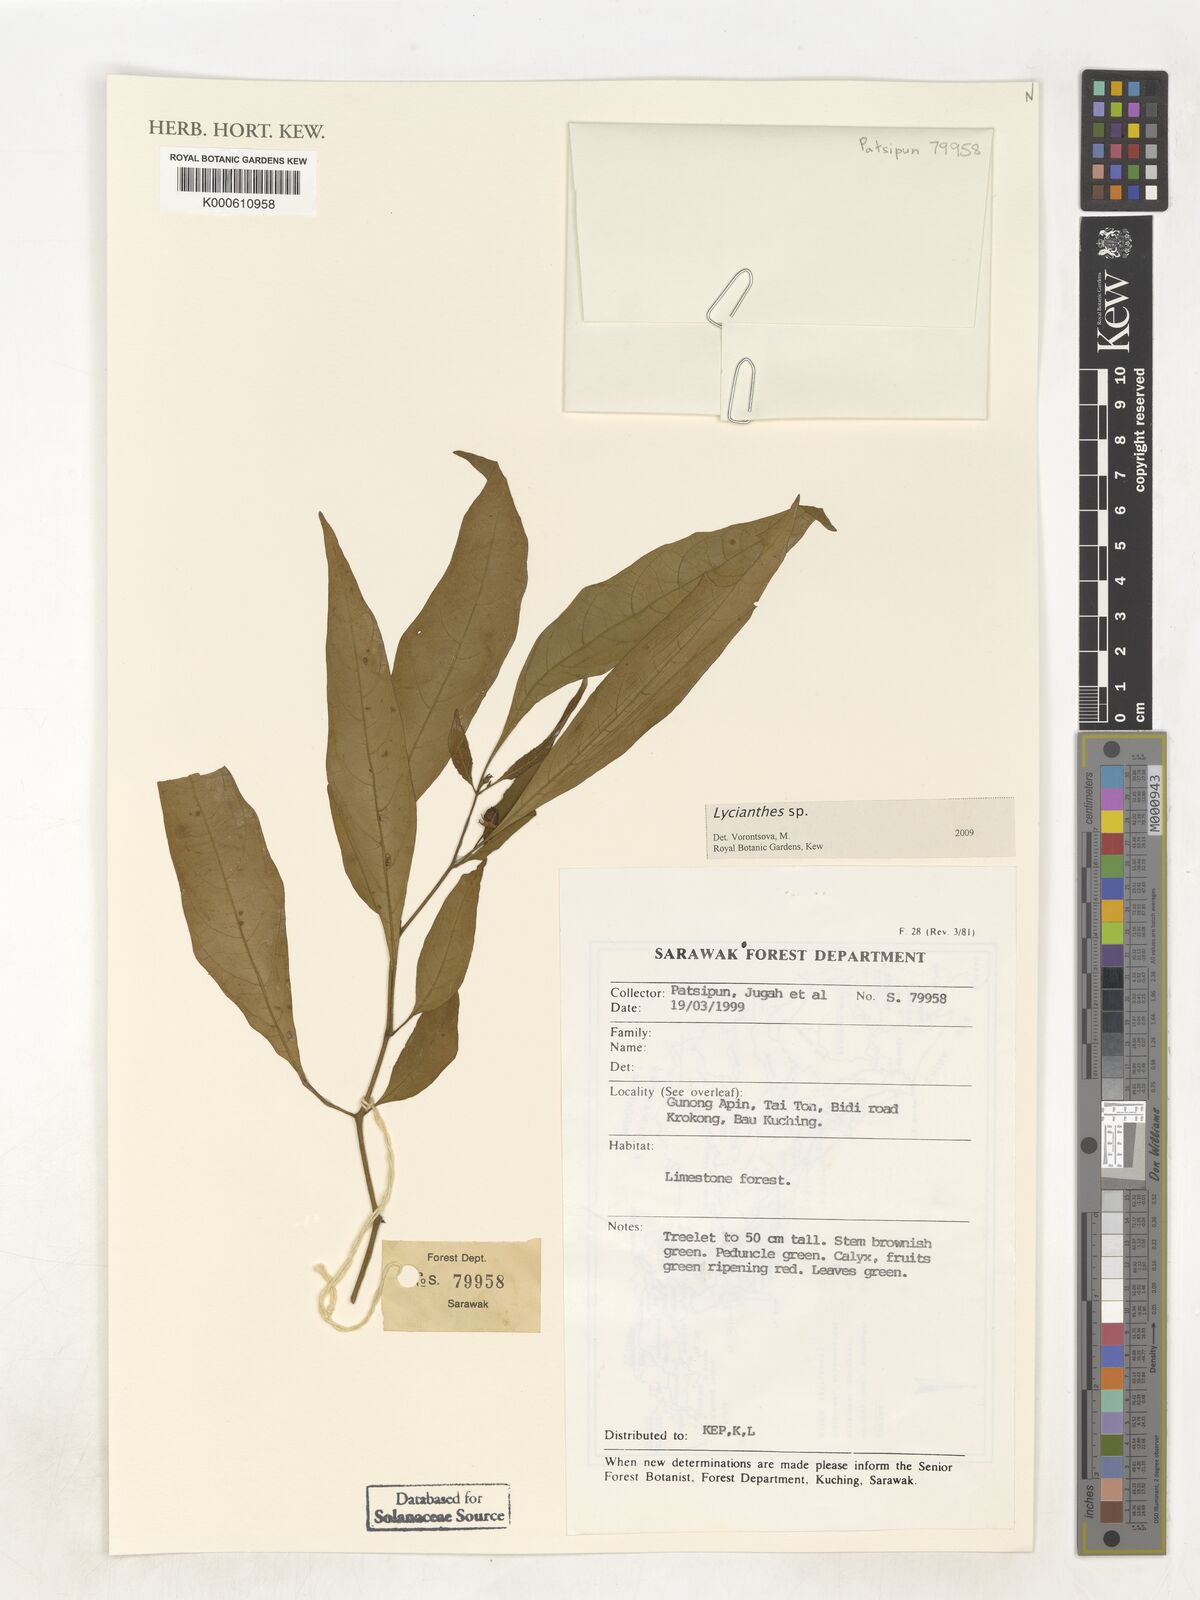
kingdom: Plantae
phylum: Tracheophyta
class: Magnoliopsida
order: Solanales
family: Solanaceae
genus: Lycianthes
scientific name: Lycianthes
